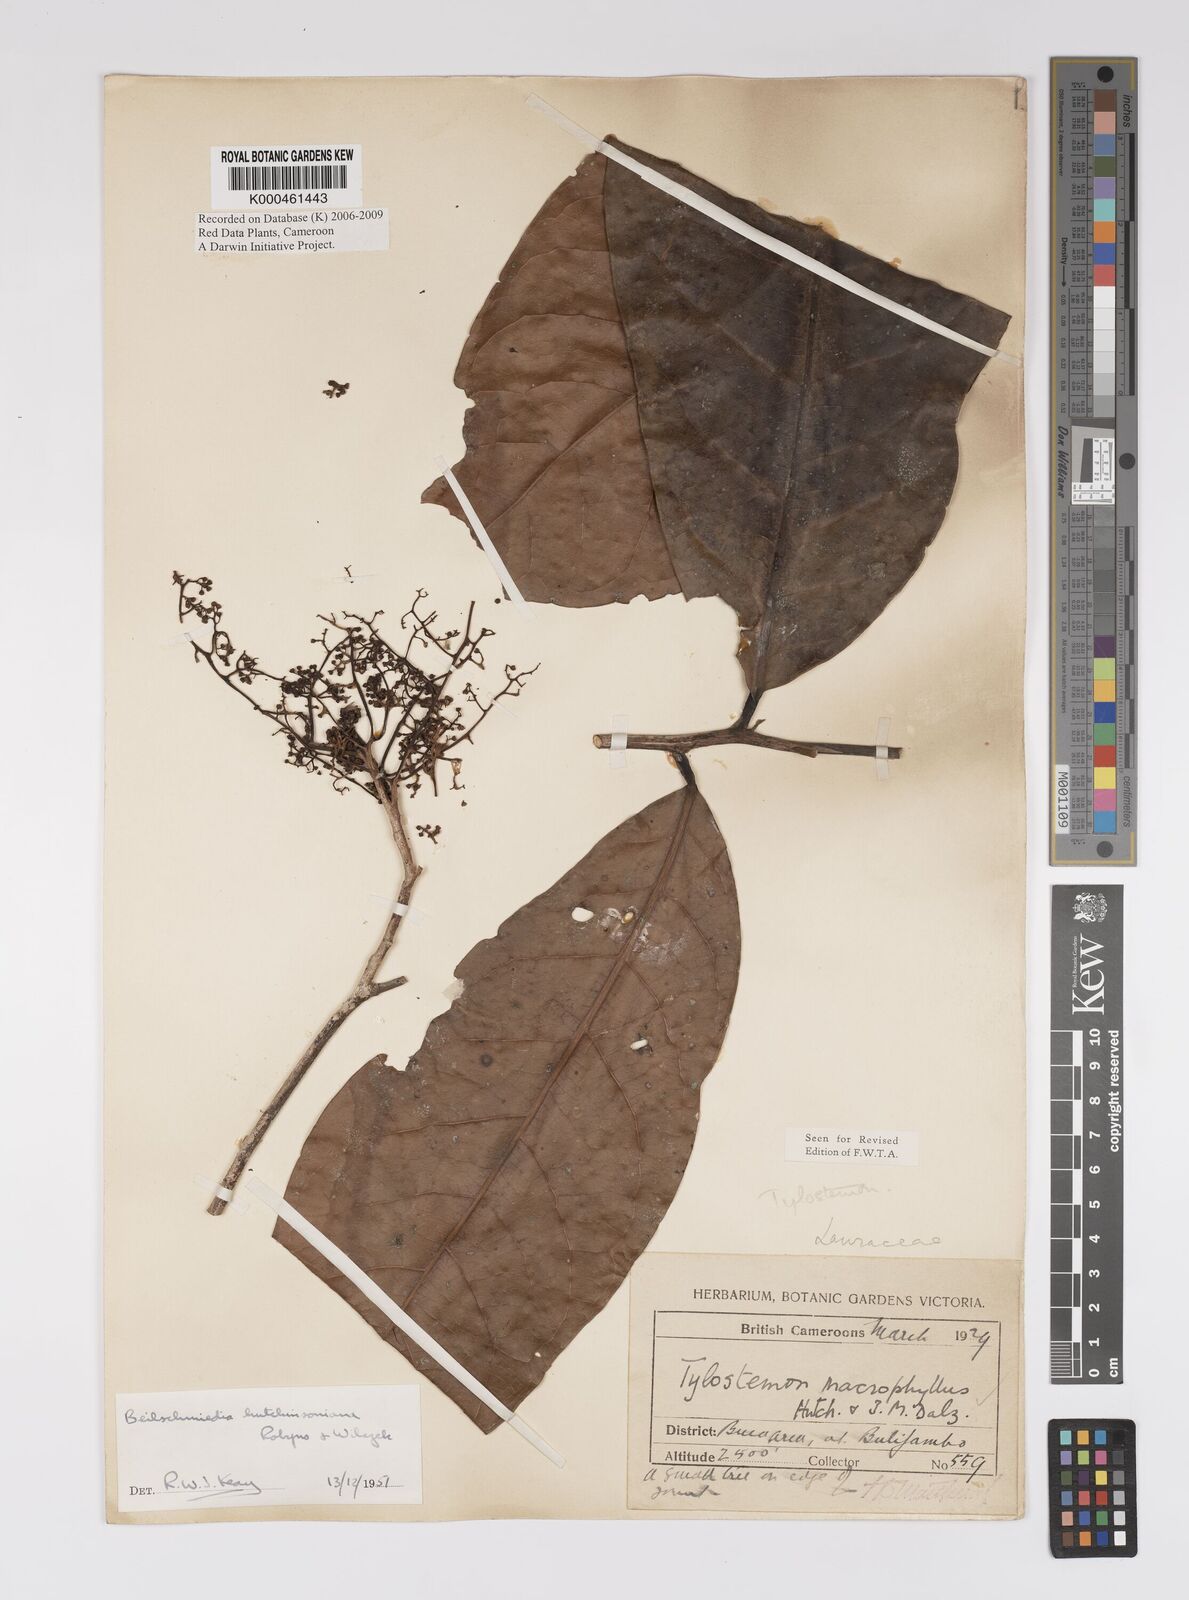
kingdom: Plantae
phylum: Tracheophyta
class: Magnoliopsida
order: Laurales
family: Lauraceae
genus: Beilschmiedia
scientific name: Beilschmiedia hutchinsoniana
